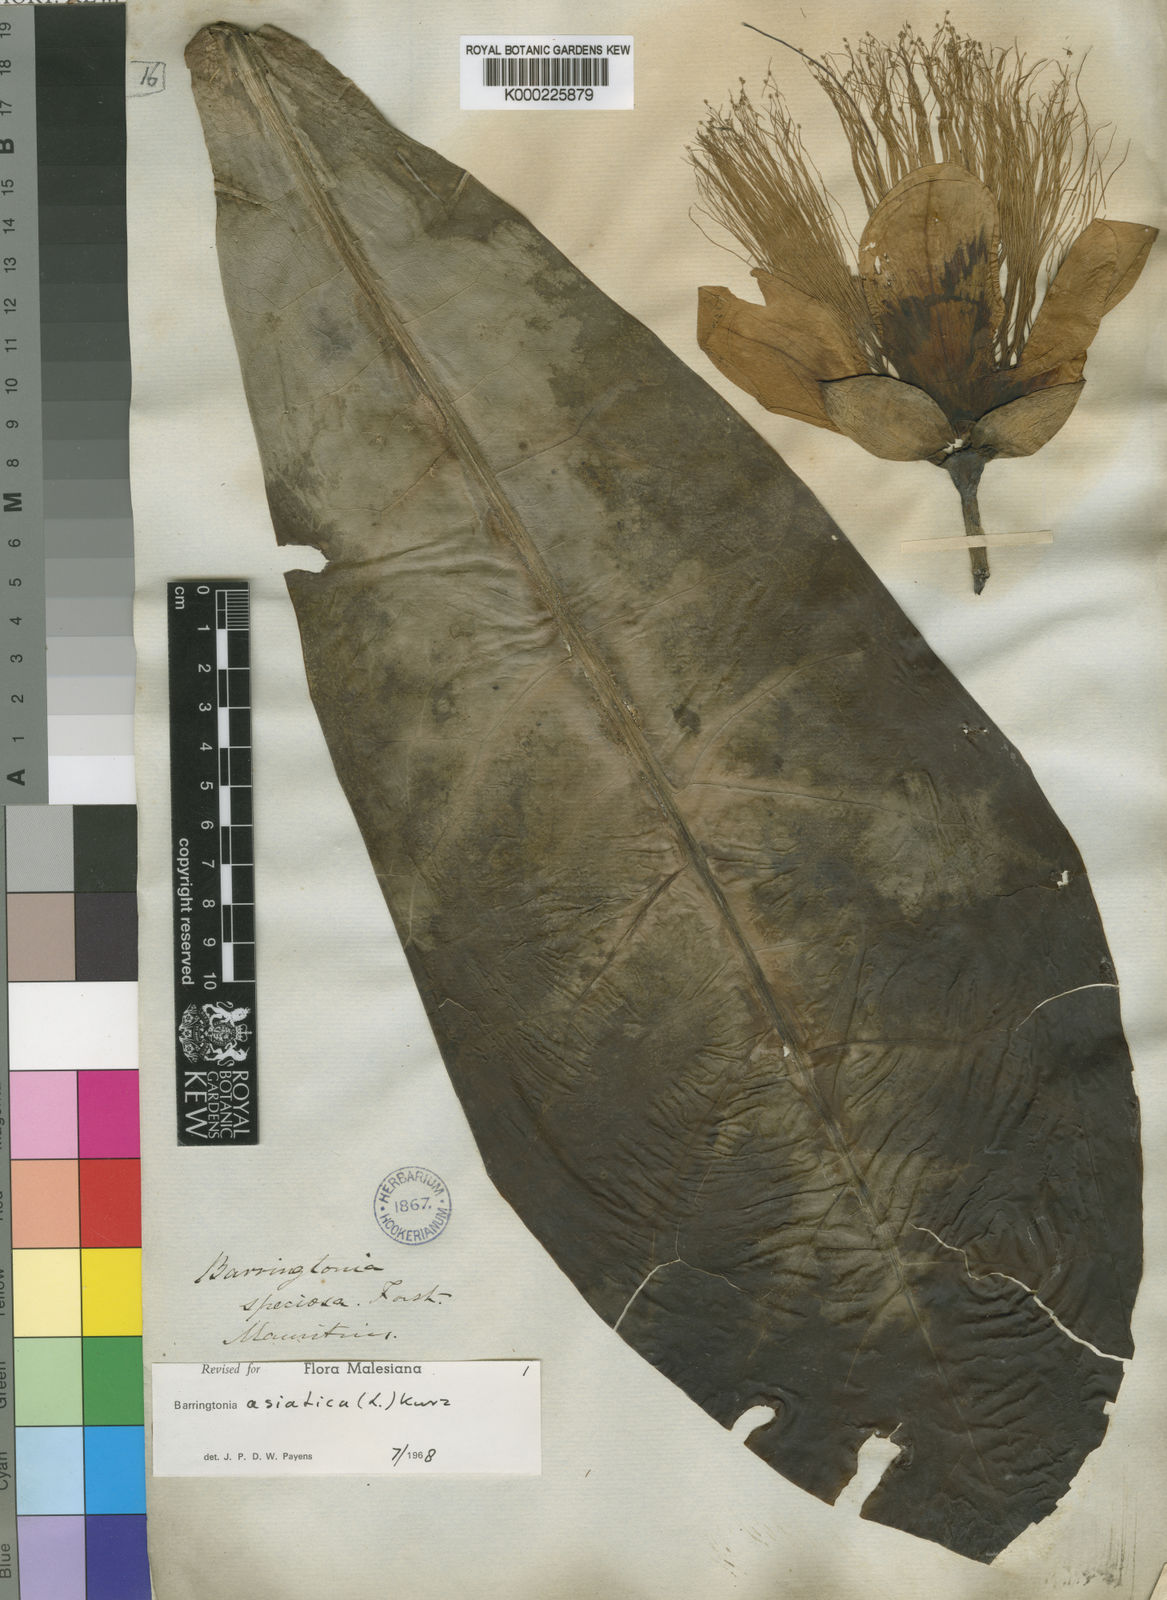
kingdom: Plantae
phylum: Tracheophyta
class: Magnoliopsida
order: Ericales
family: Lecythidaceae
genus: Barringtonia
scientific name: Barringtonia asiatica
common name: Mango-pine
